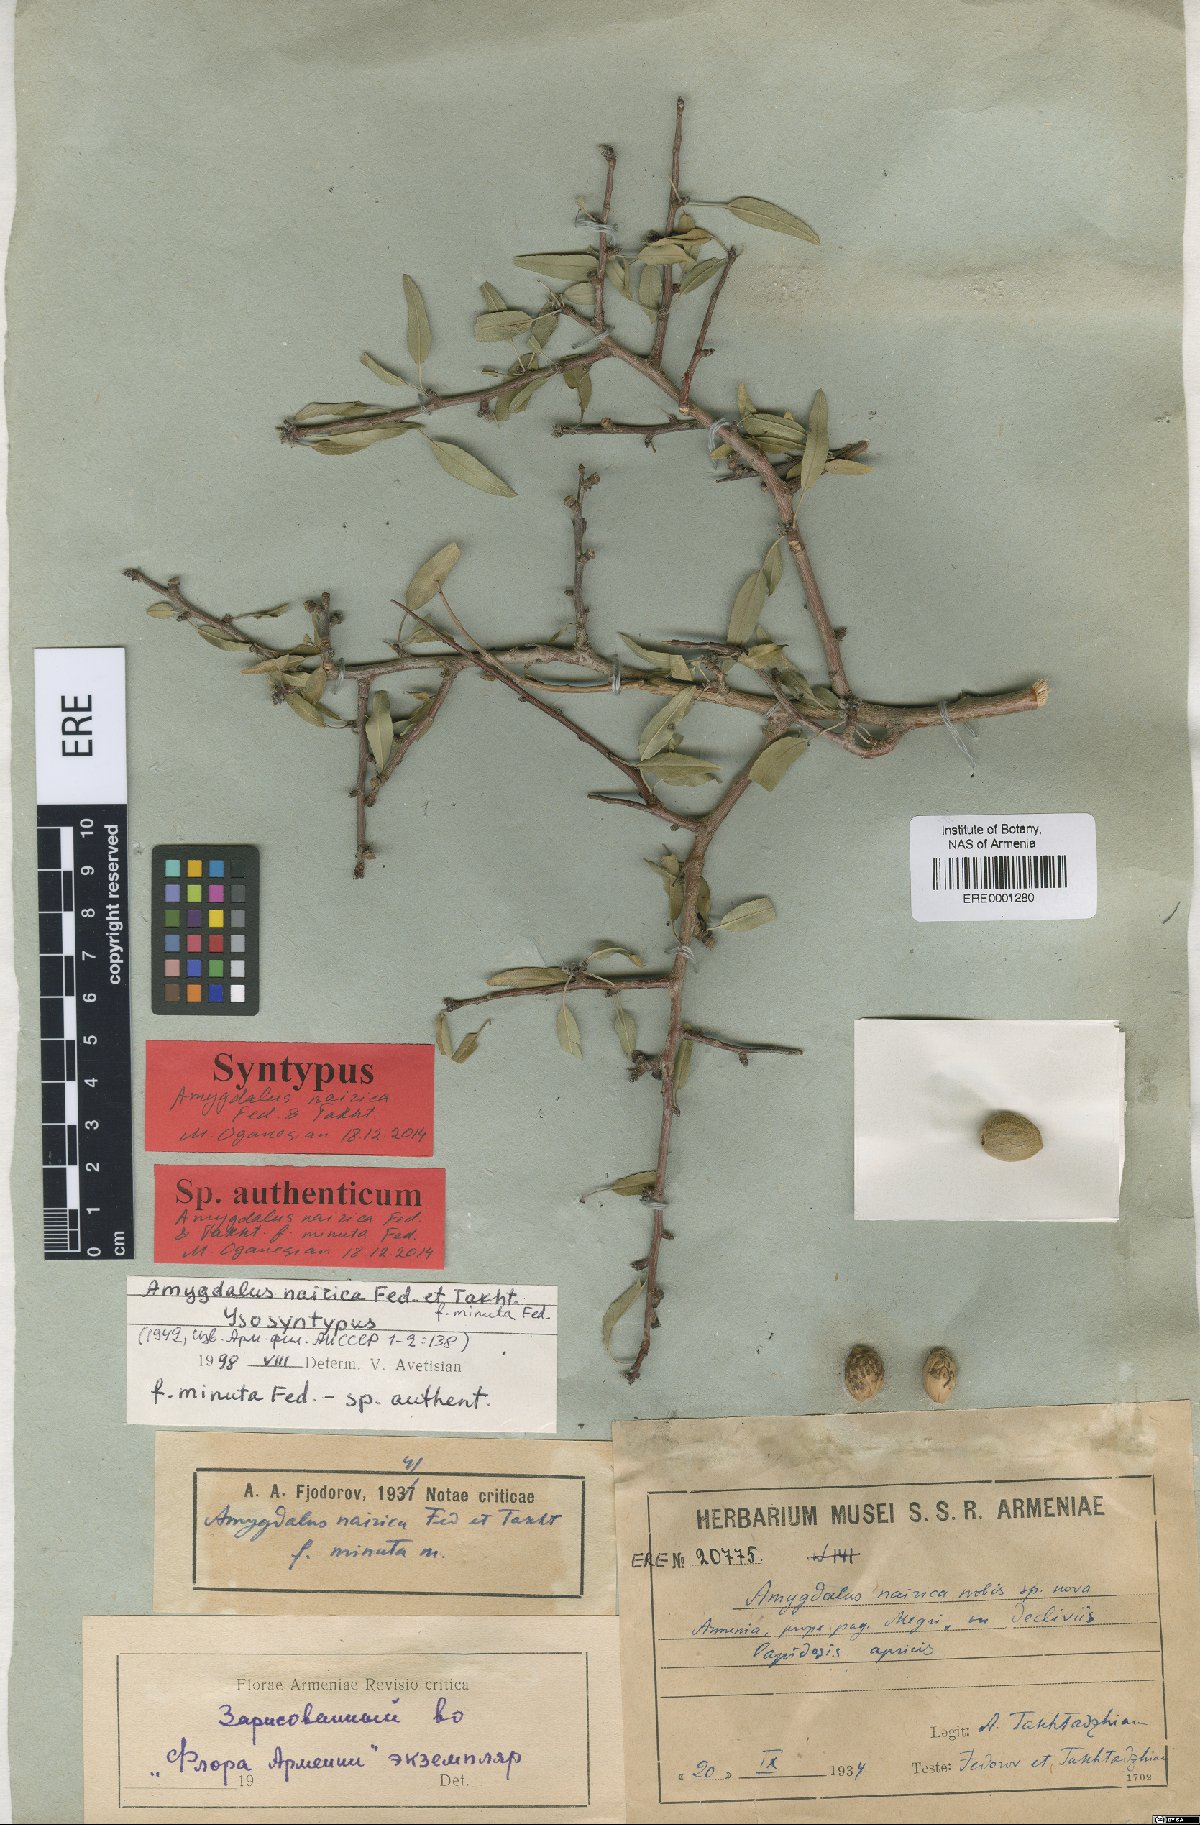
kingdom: Plantae
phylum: Tracheophyta
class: Magnoliopsida
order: Rosales
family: Rosaceae
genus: Prunus
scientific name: Prunus nairica
